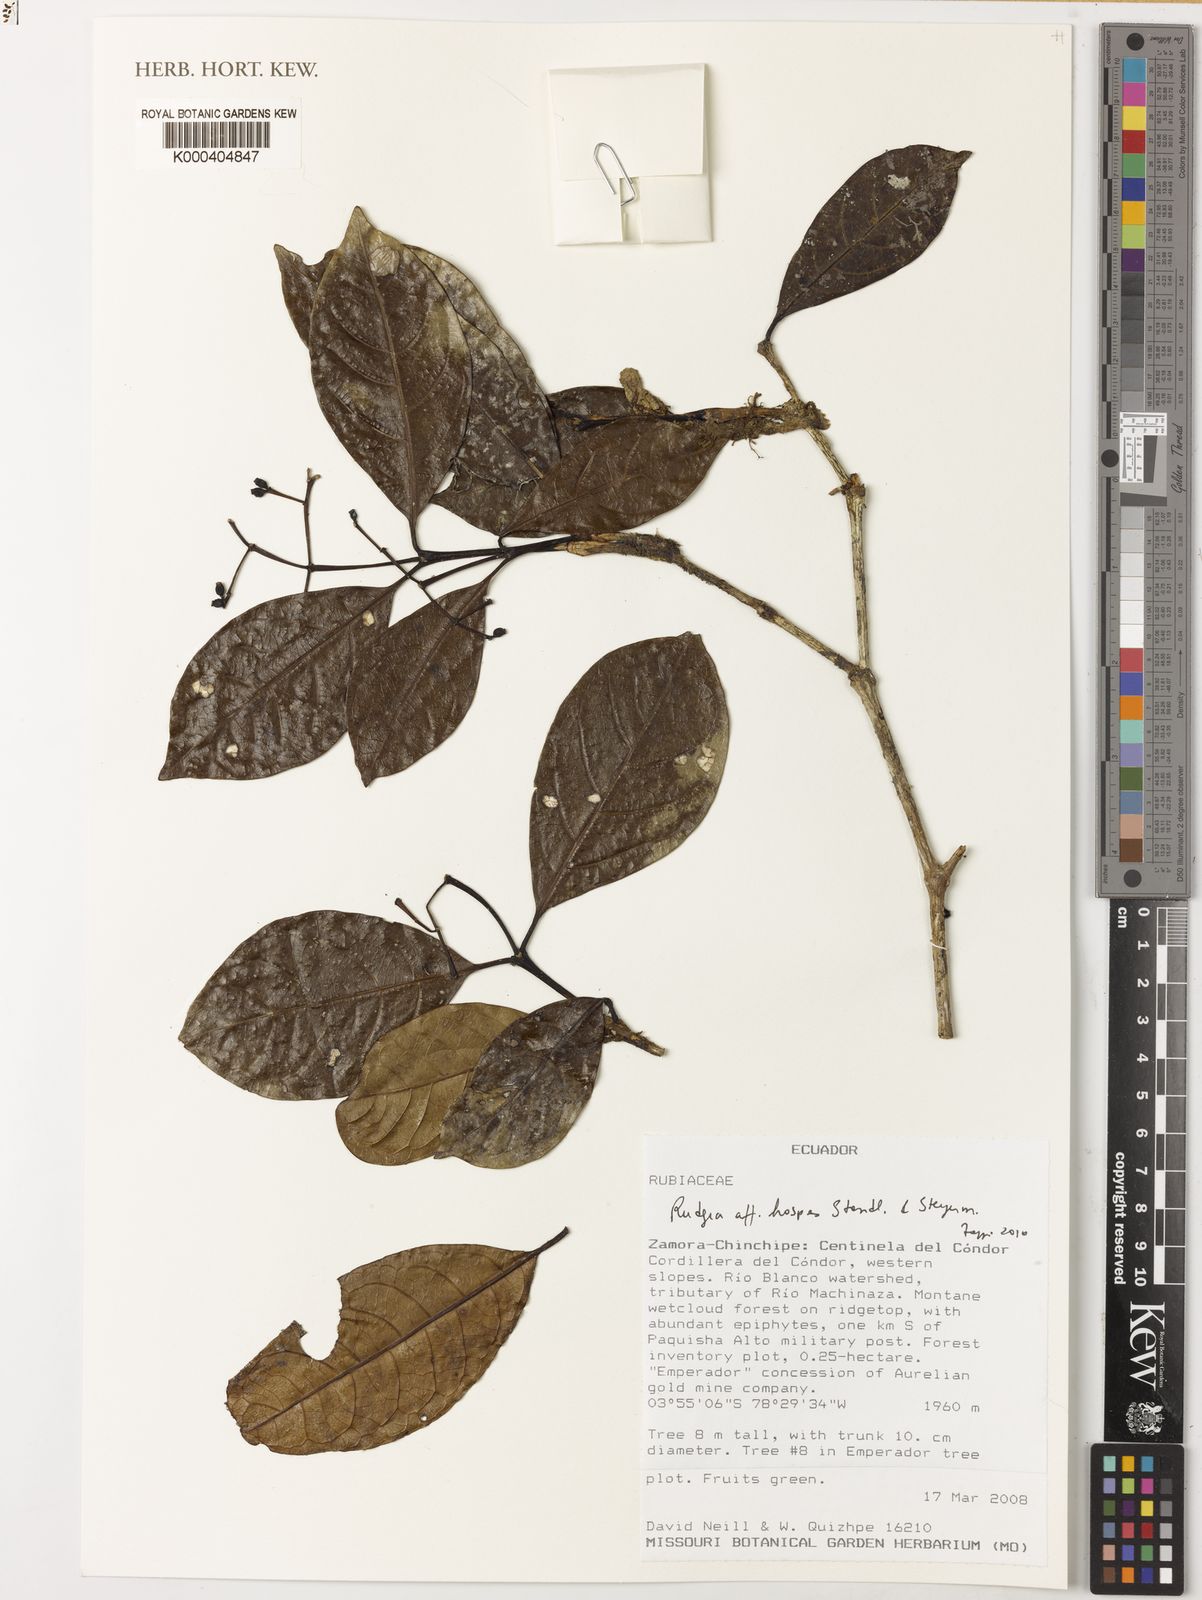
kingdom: Plantae
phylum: Tracheophyta
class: Magnoliopsida
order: Gentianales
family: Rubiaceae
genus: Rudgea
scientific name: Rudgea hospes
